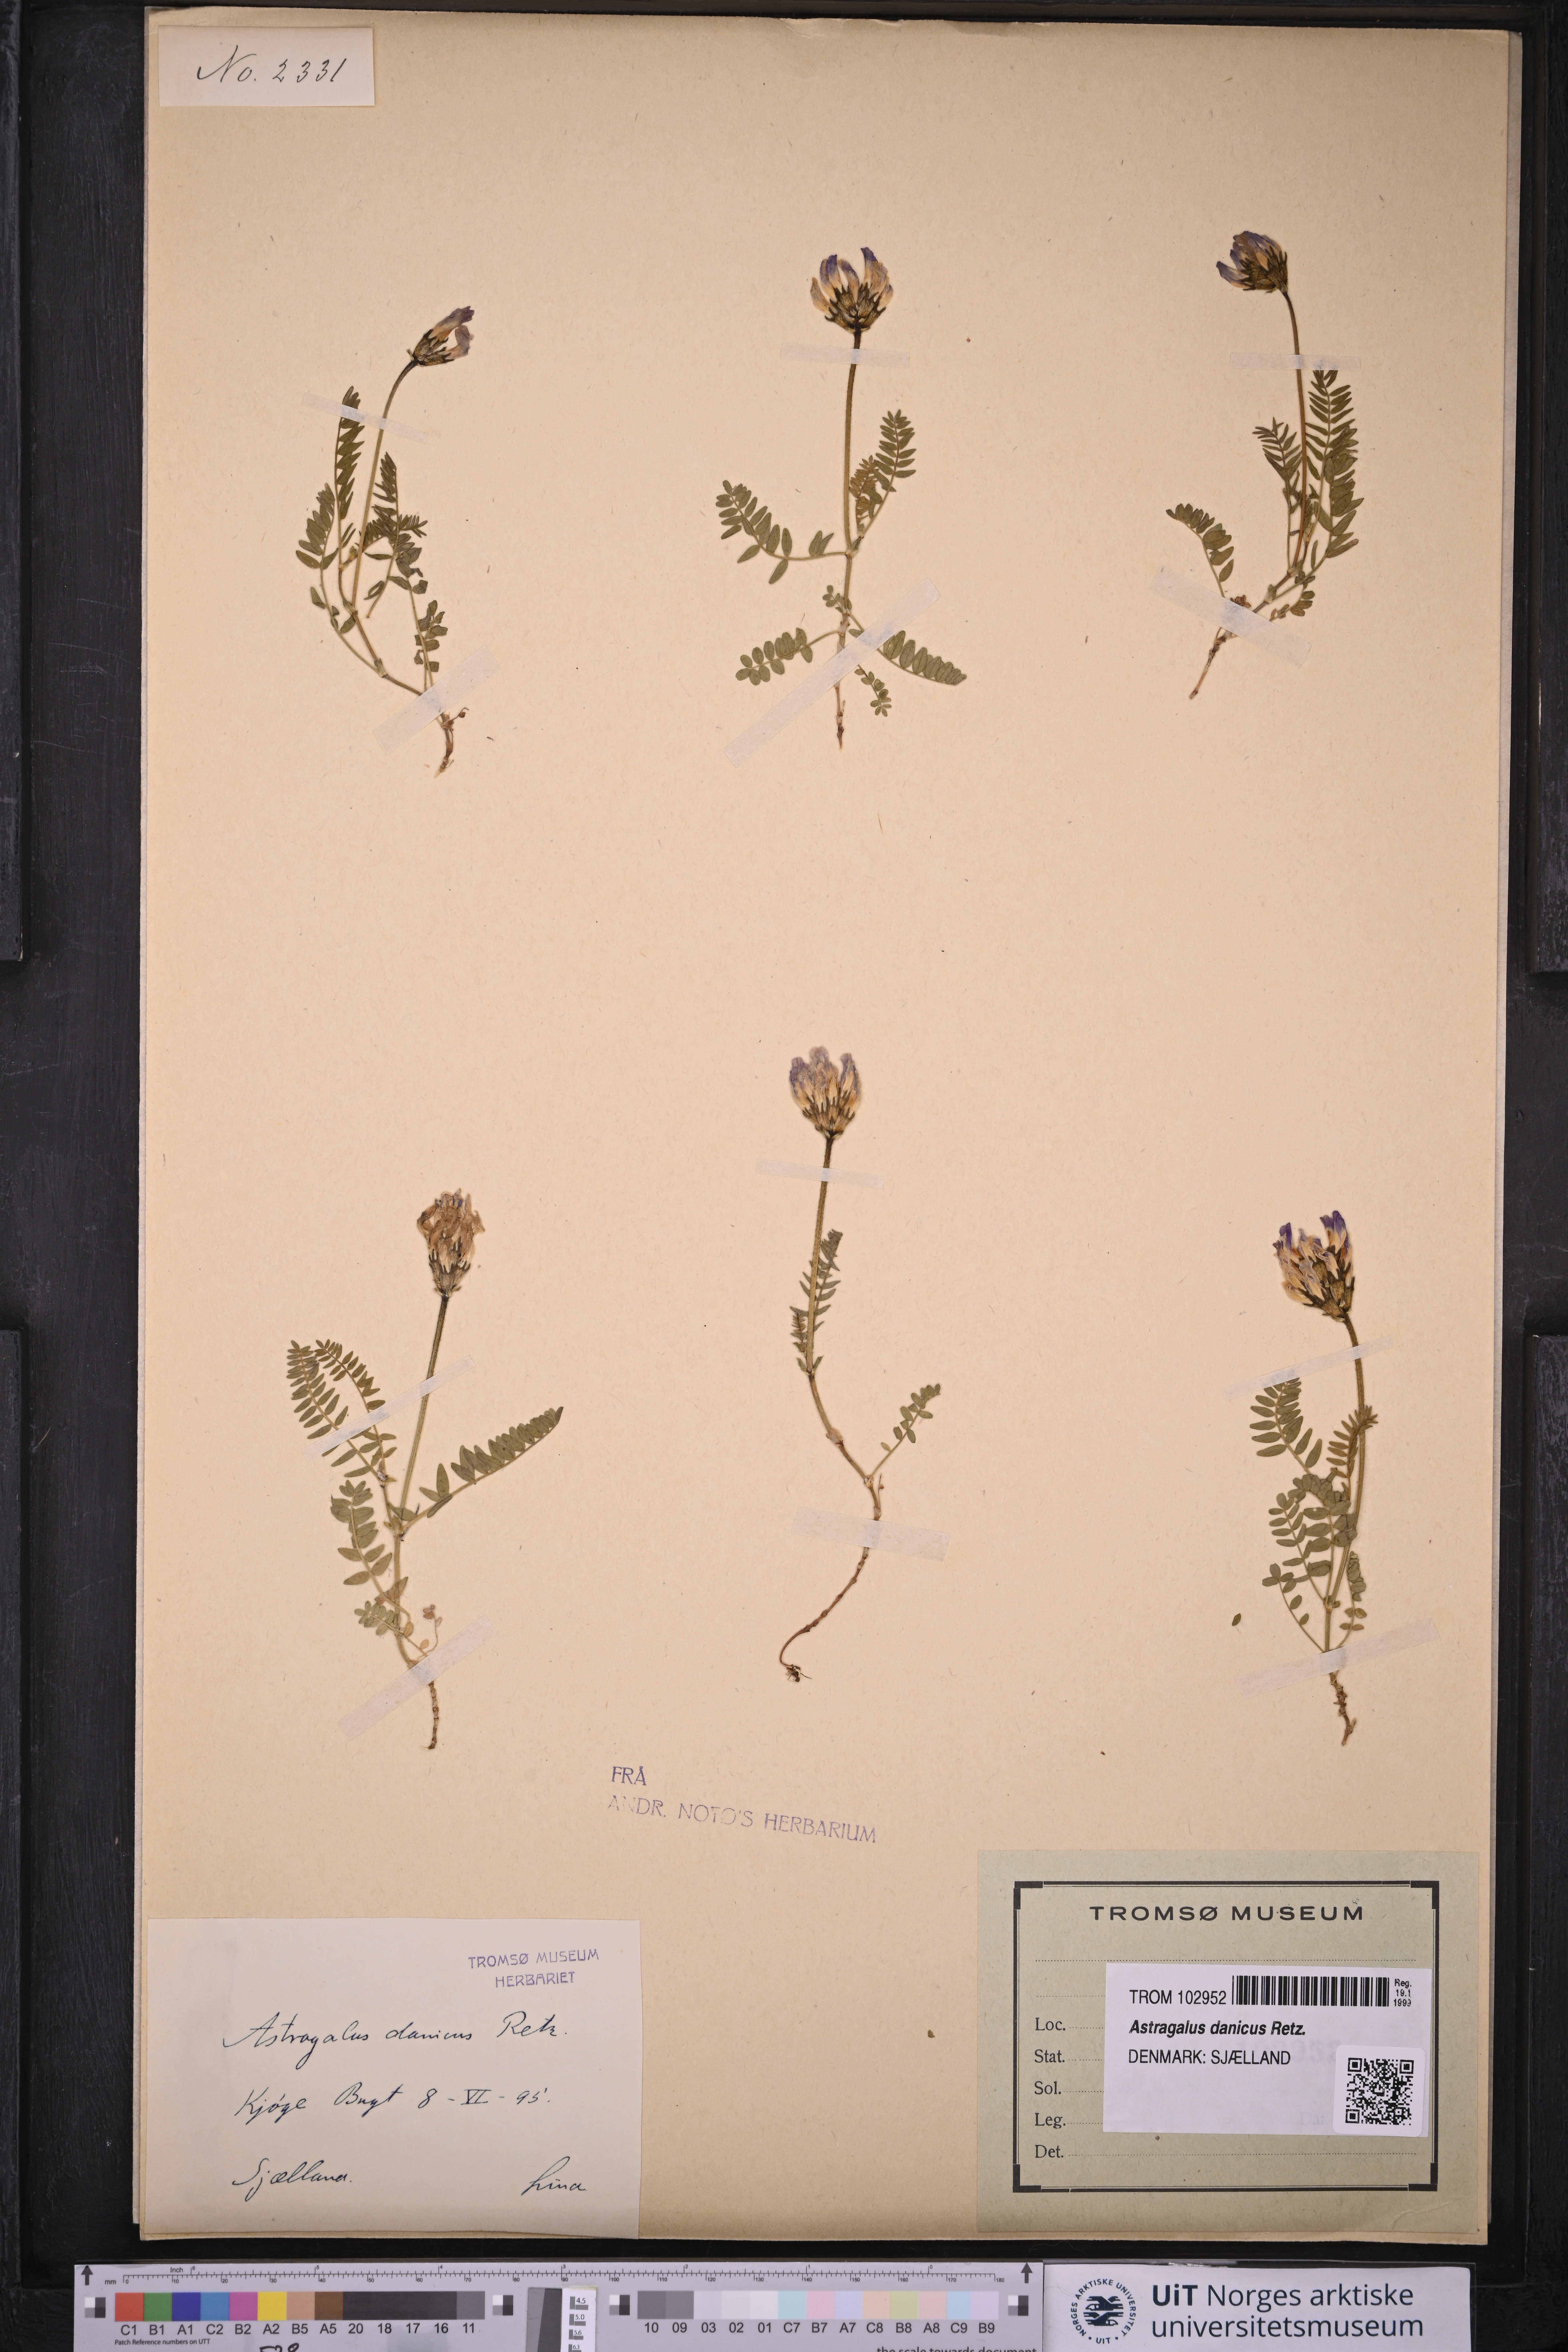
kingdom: Plantae
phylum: Tracheophyta
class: Magnoliopsida
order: Fabales
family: Fabaceae
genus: Astragalus
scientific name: Astragalus danicus
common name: Purple milk-vetch
